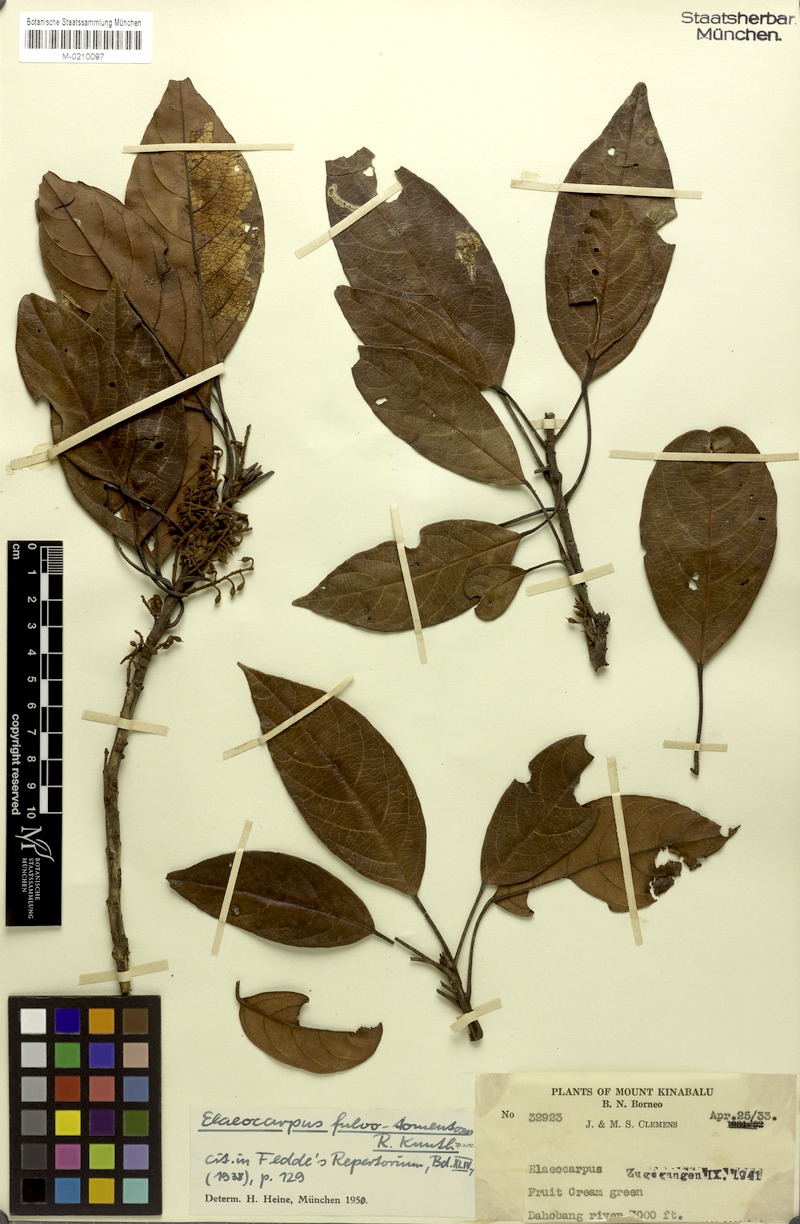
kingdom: Plantae
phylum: Tracheophyta
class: Magnoliopsida
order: Oxalidales
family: Elaeocarpaceae
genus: Elaeocarpus
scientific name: Elaeocarpus ferrugineus
